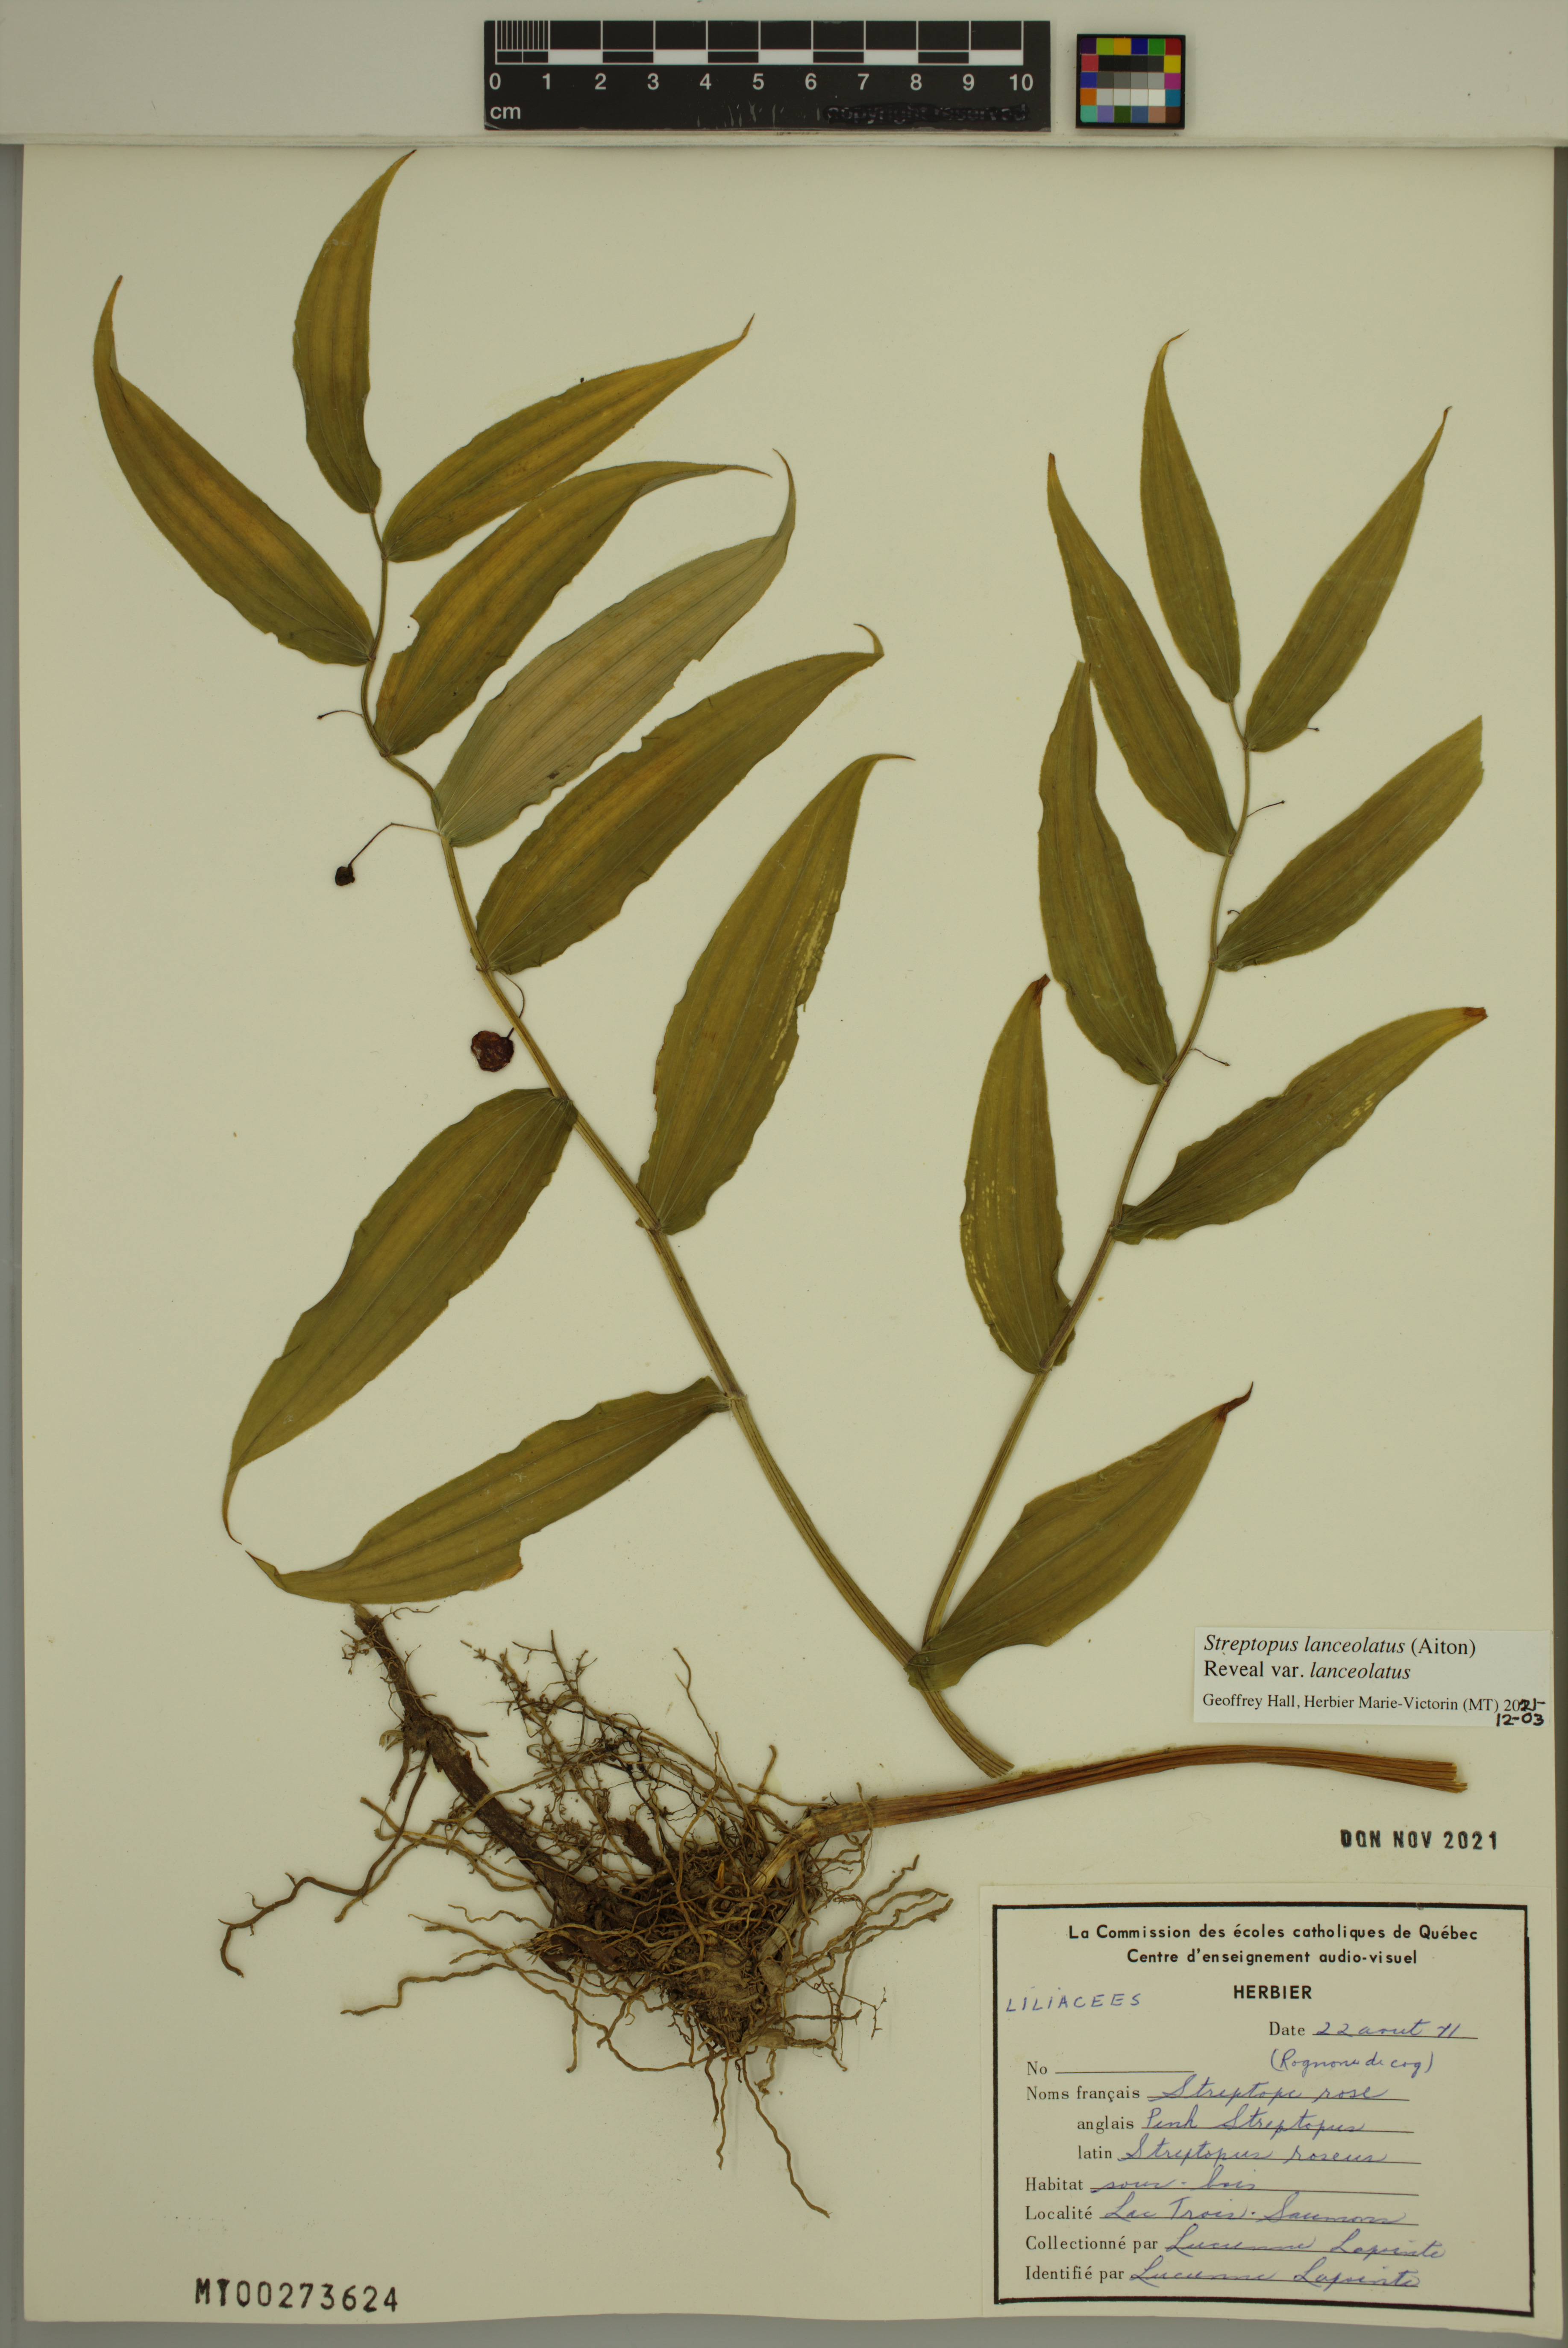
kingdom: Plantae
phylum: Tracheophyta
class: Liliopsida
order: Liliales
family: Liliaceae
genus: Streptopus
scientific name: Streptopus lanceolatus
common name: Rose mandarin
